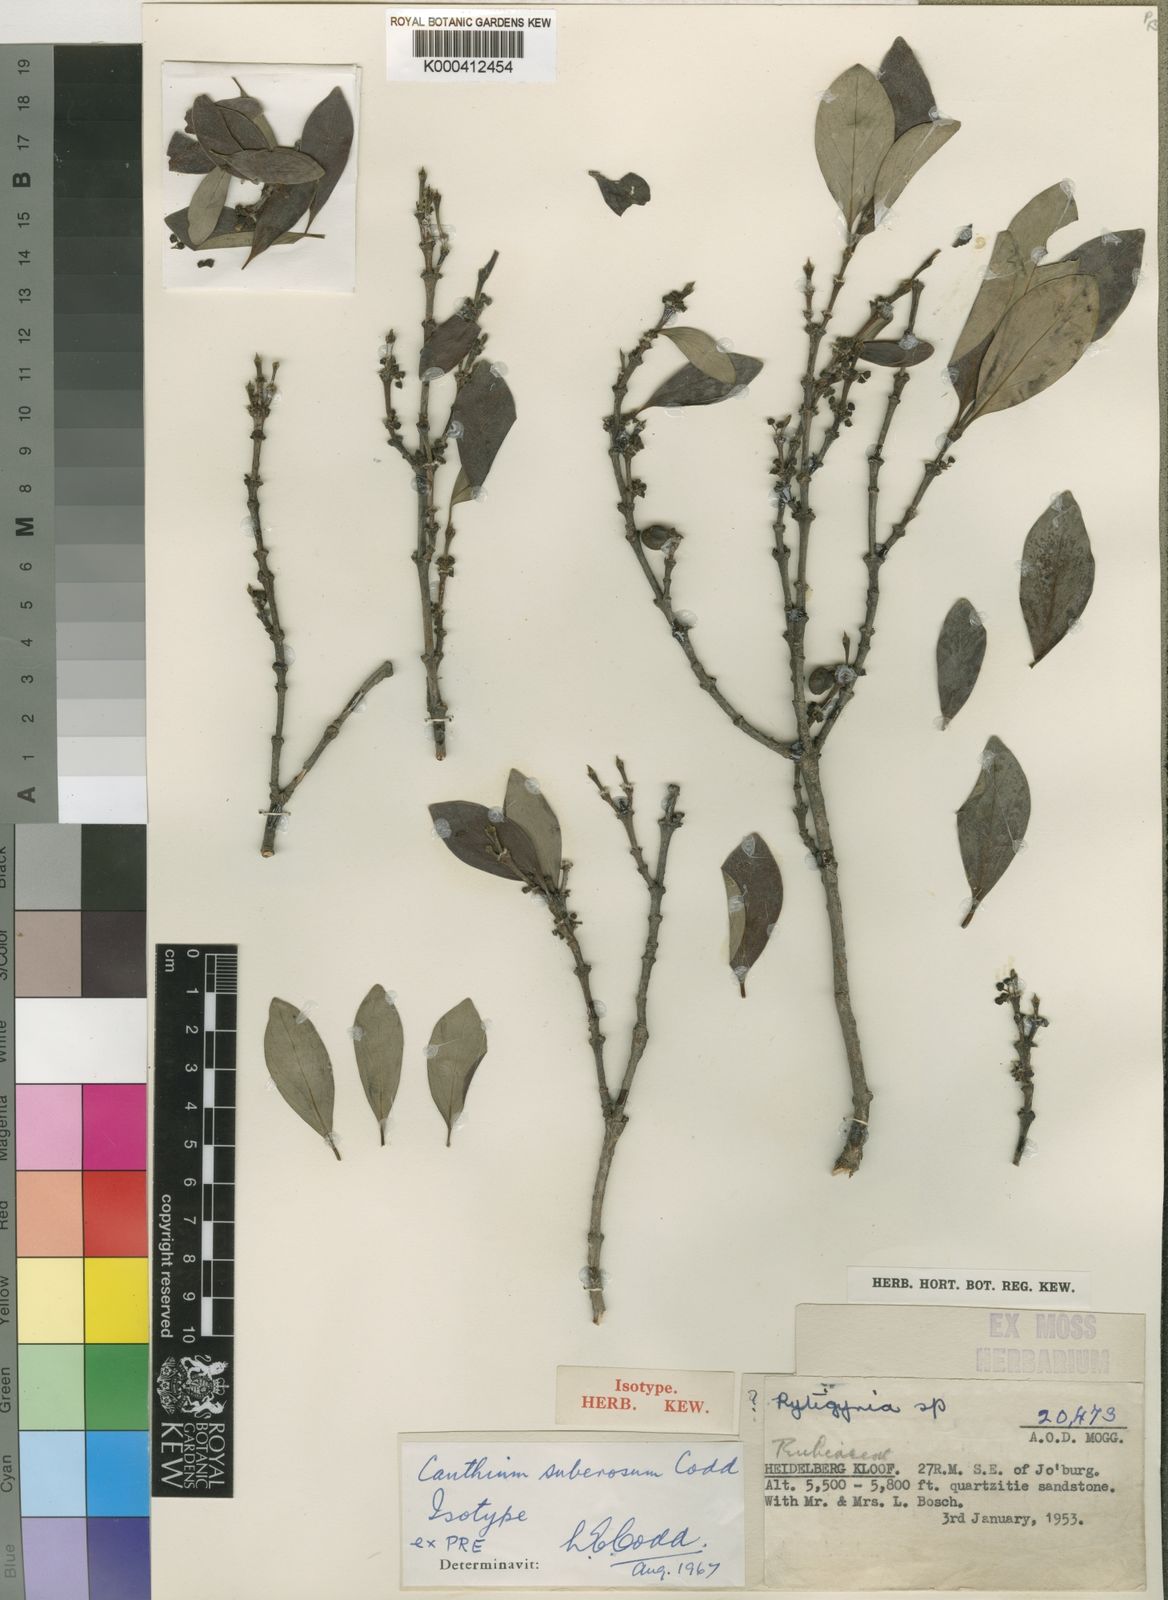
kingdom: Plantae
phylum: Tracheophyta
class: Magnoliopsida
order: Gentianales
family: Rubiaceae
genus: Canthium
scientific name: Canthium suberosum
